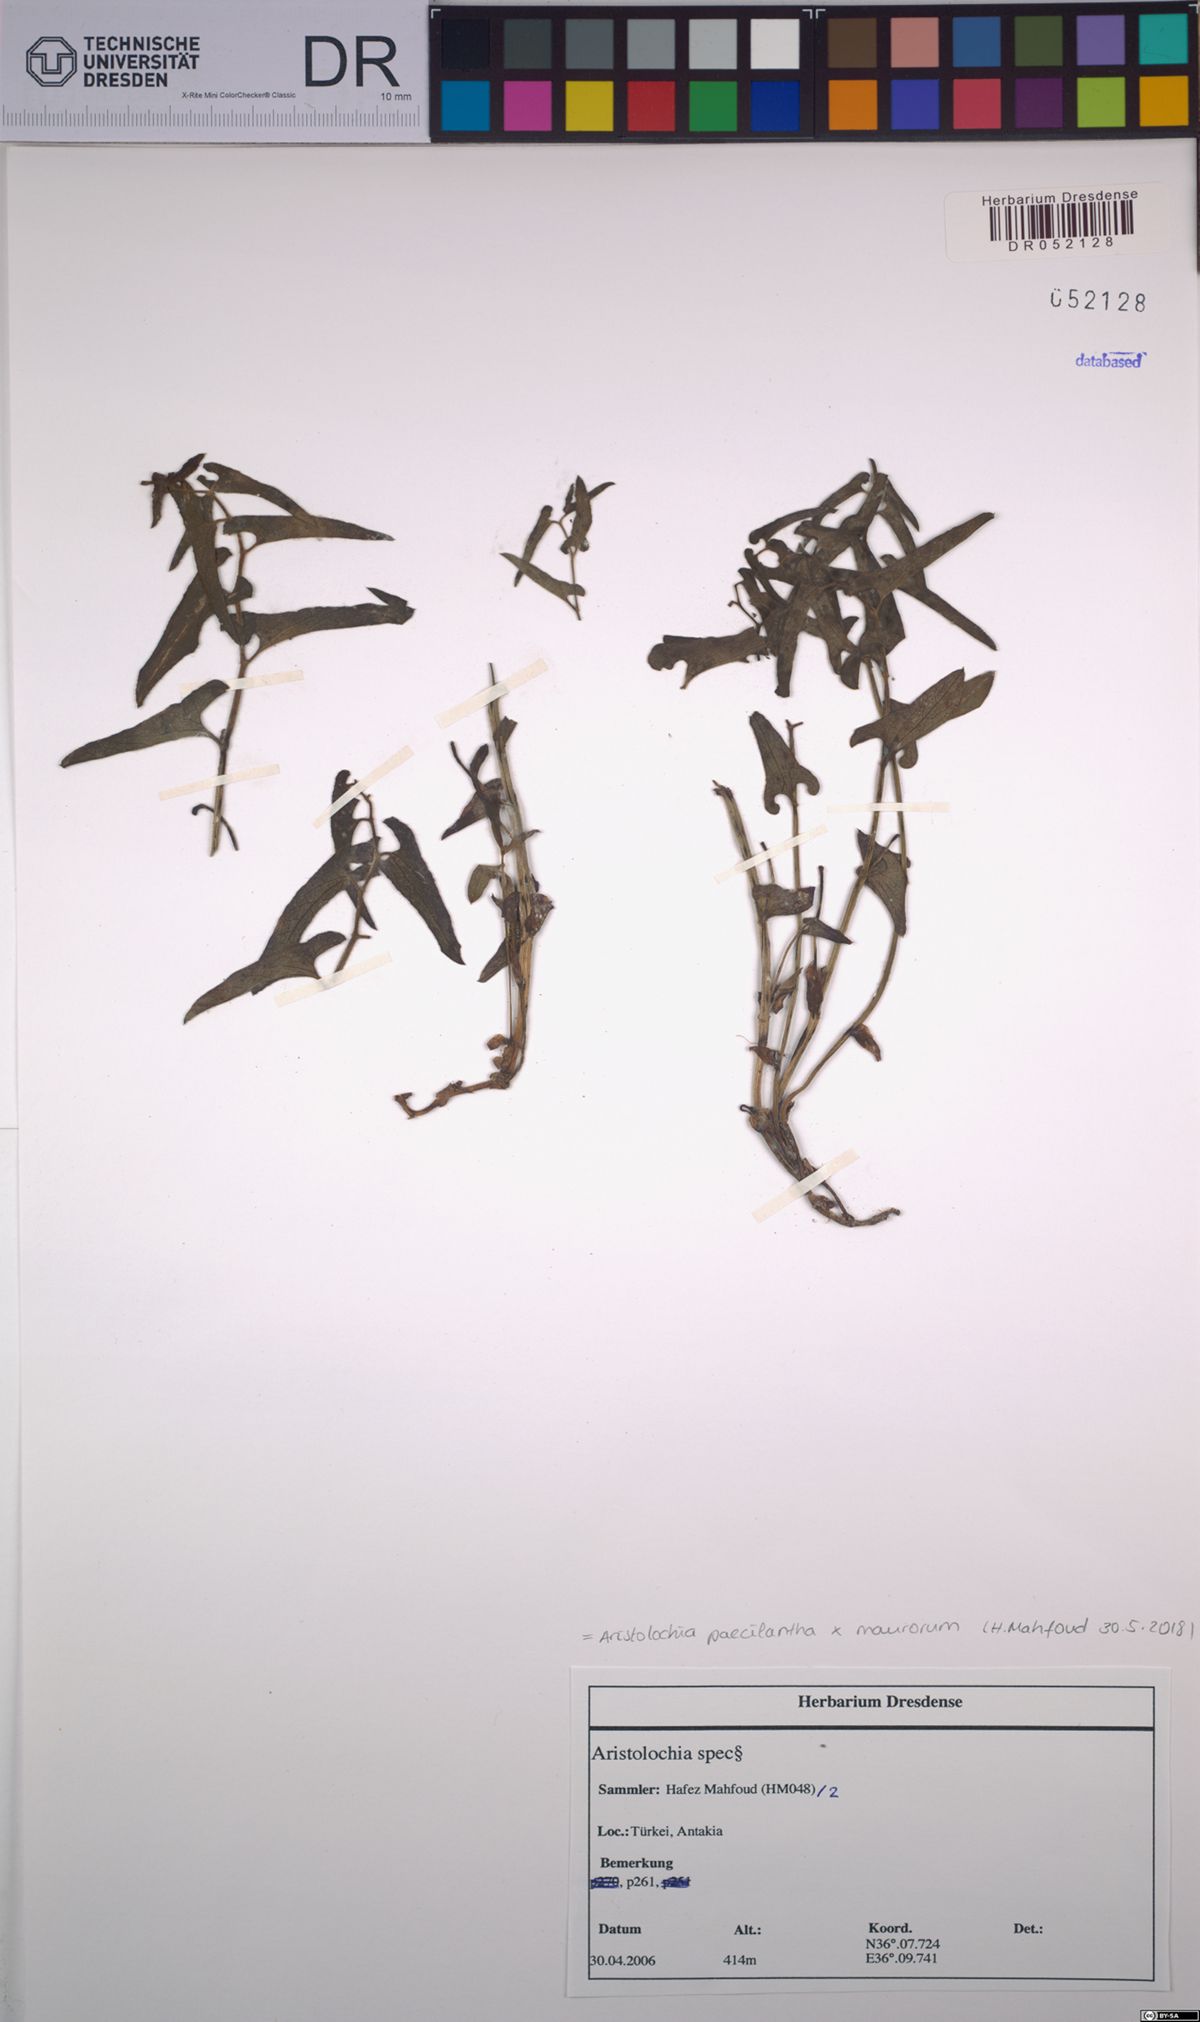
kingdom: Plantae
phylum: Tracheophyta
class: Magnoliopsida
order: Piperales
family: Aristolochiaceae
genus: Aristolochia
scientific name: Aristolochia paecilantha
